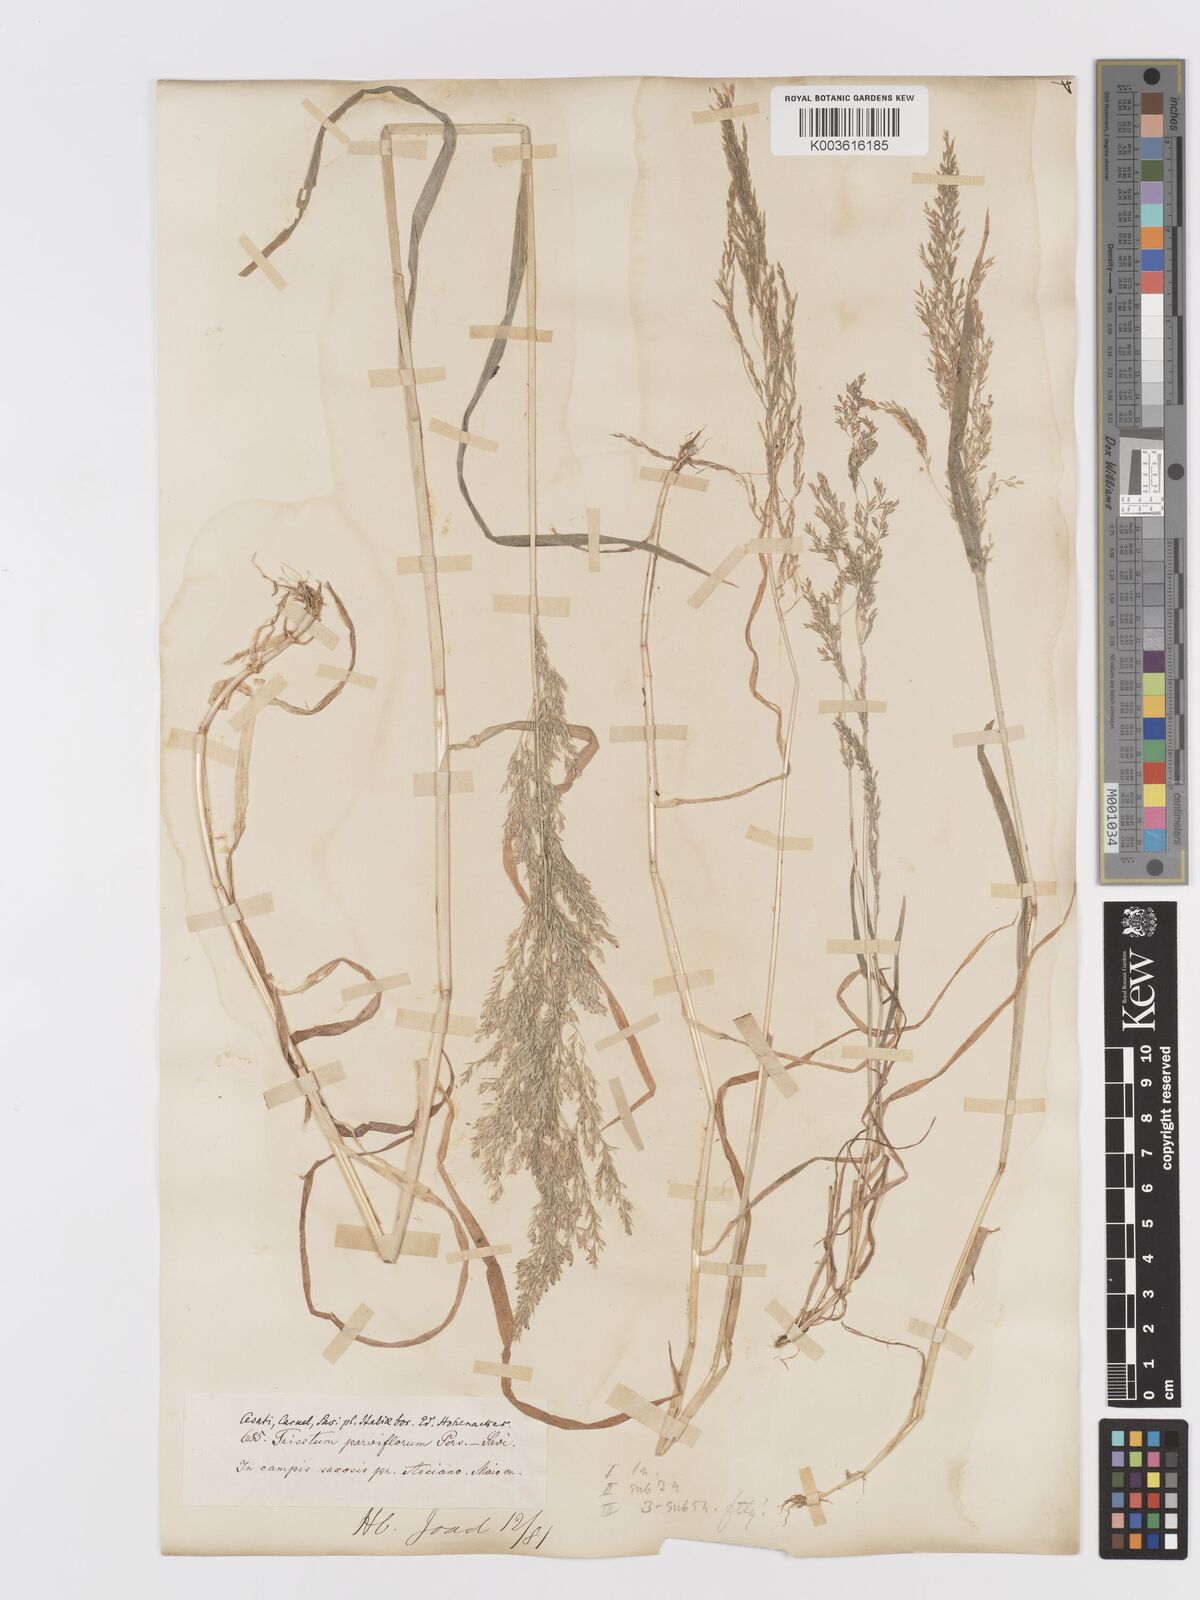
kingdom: Plantae
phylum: Tracheophyta
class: Liliopsida
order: Poales
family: Poaceae
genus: Trisetaria
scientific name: Trisetaria parviflora
